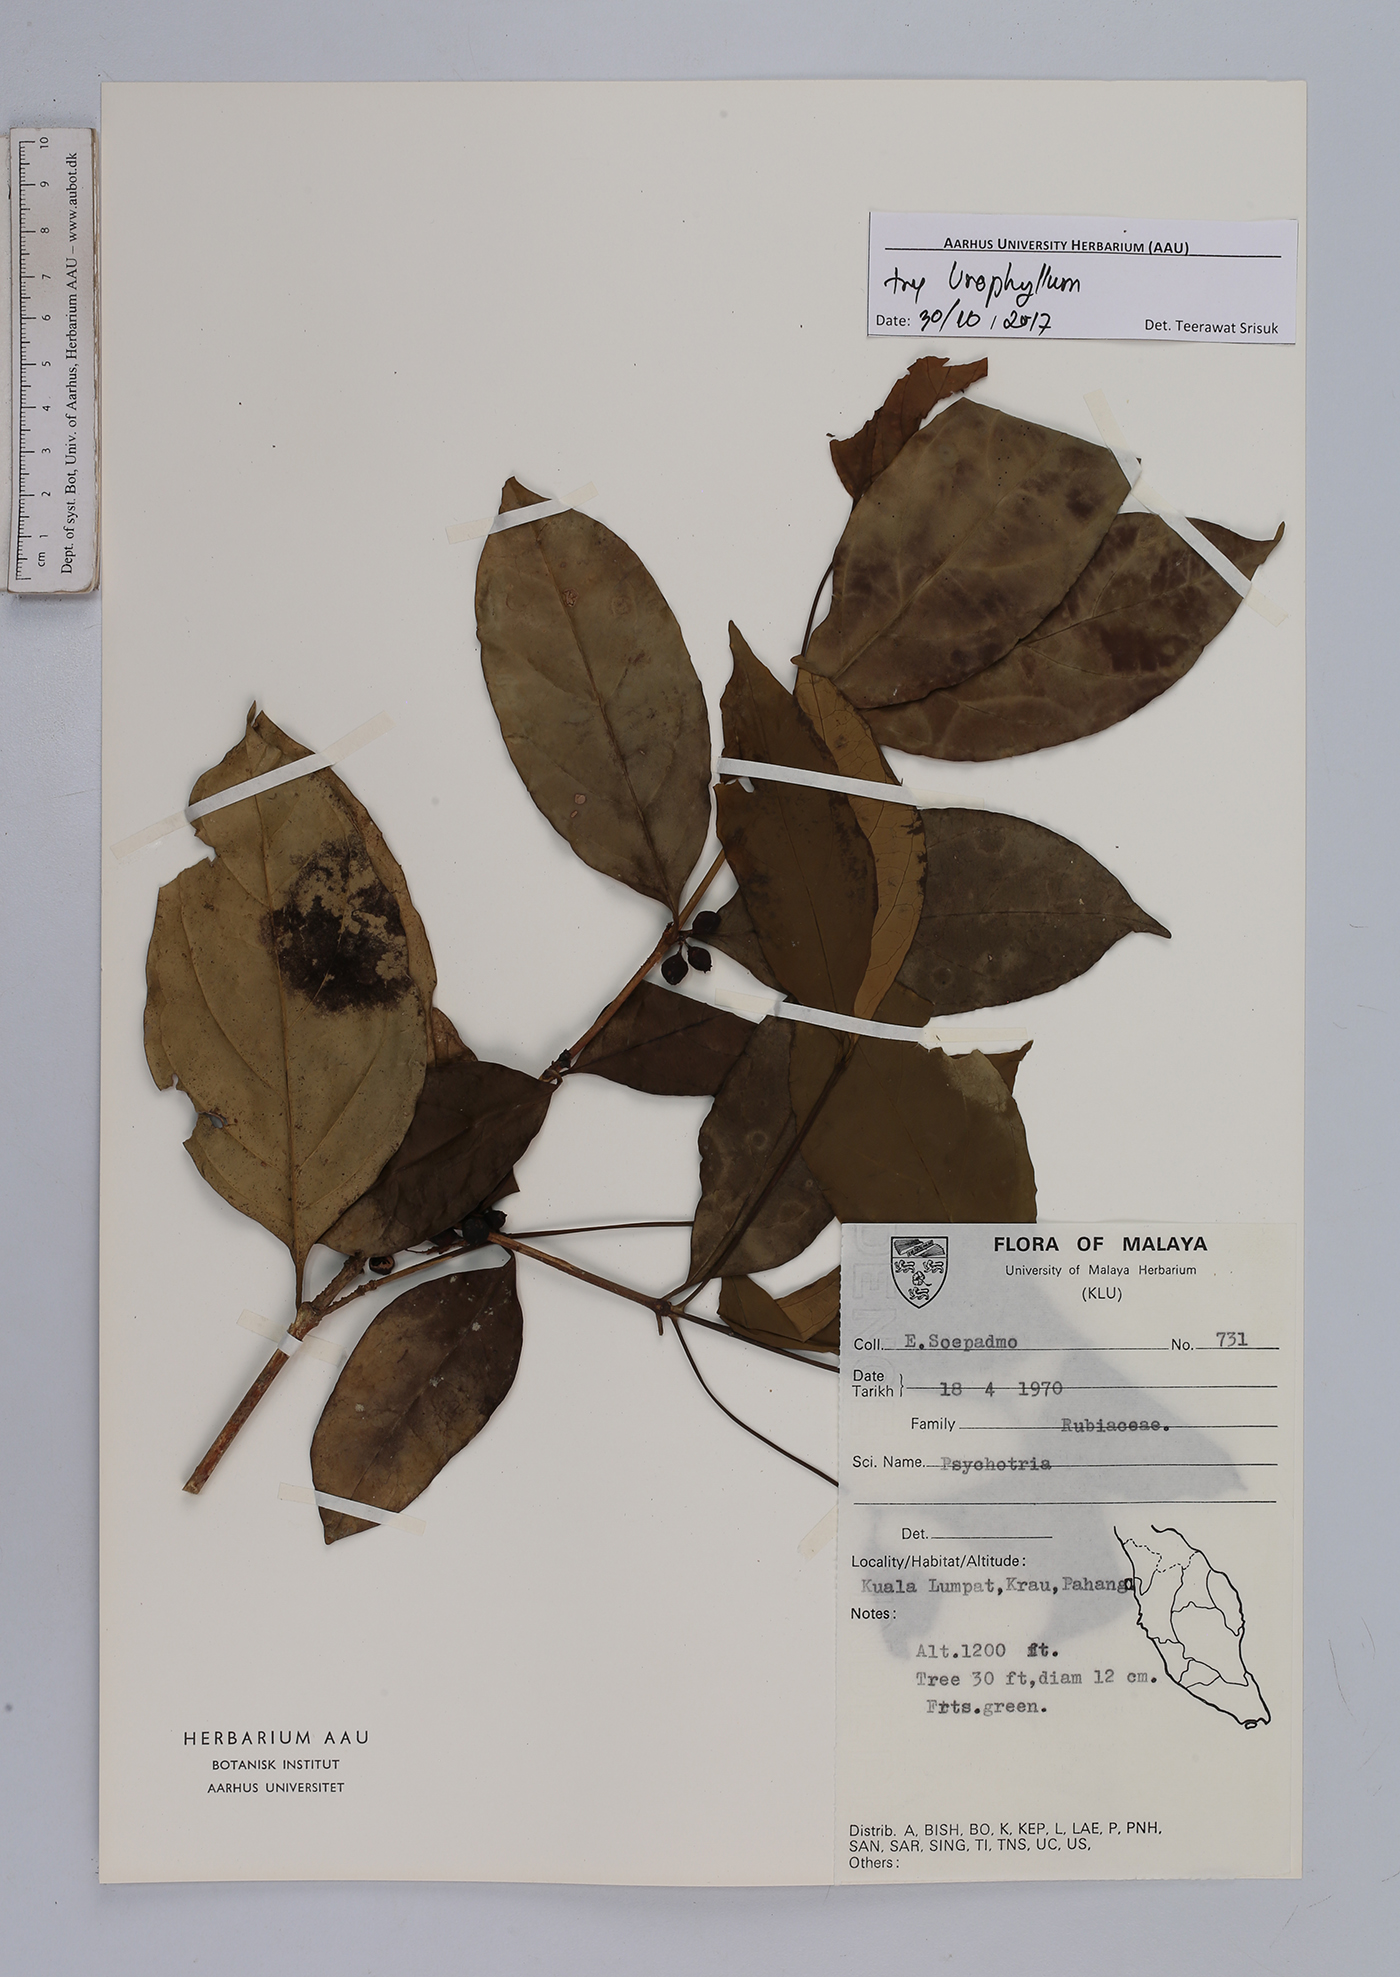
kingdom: Plantae
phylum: Tracheophyta
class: Magnoliopsida
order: Gentianales
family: Rubiaceae
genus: Urophyllum
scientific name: Urophyllum
